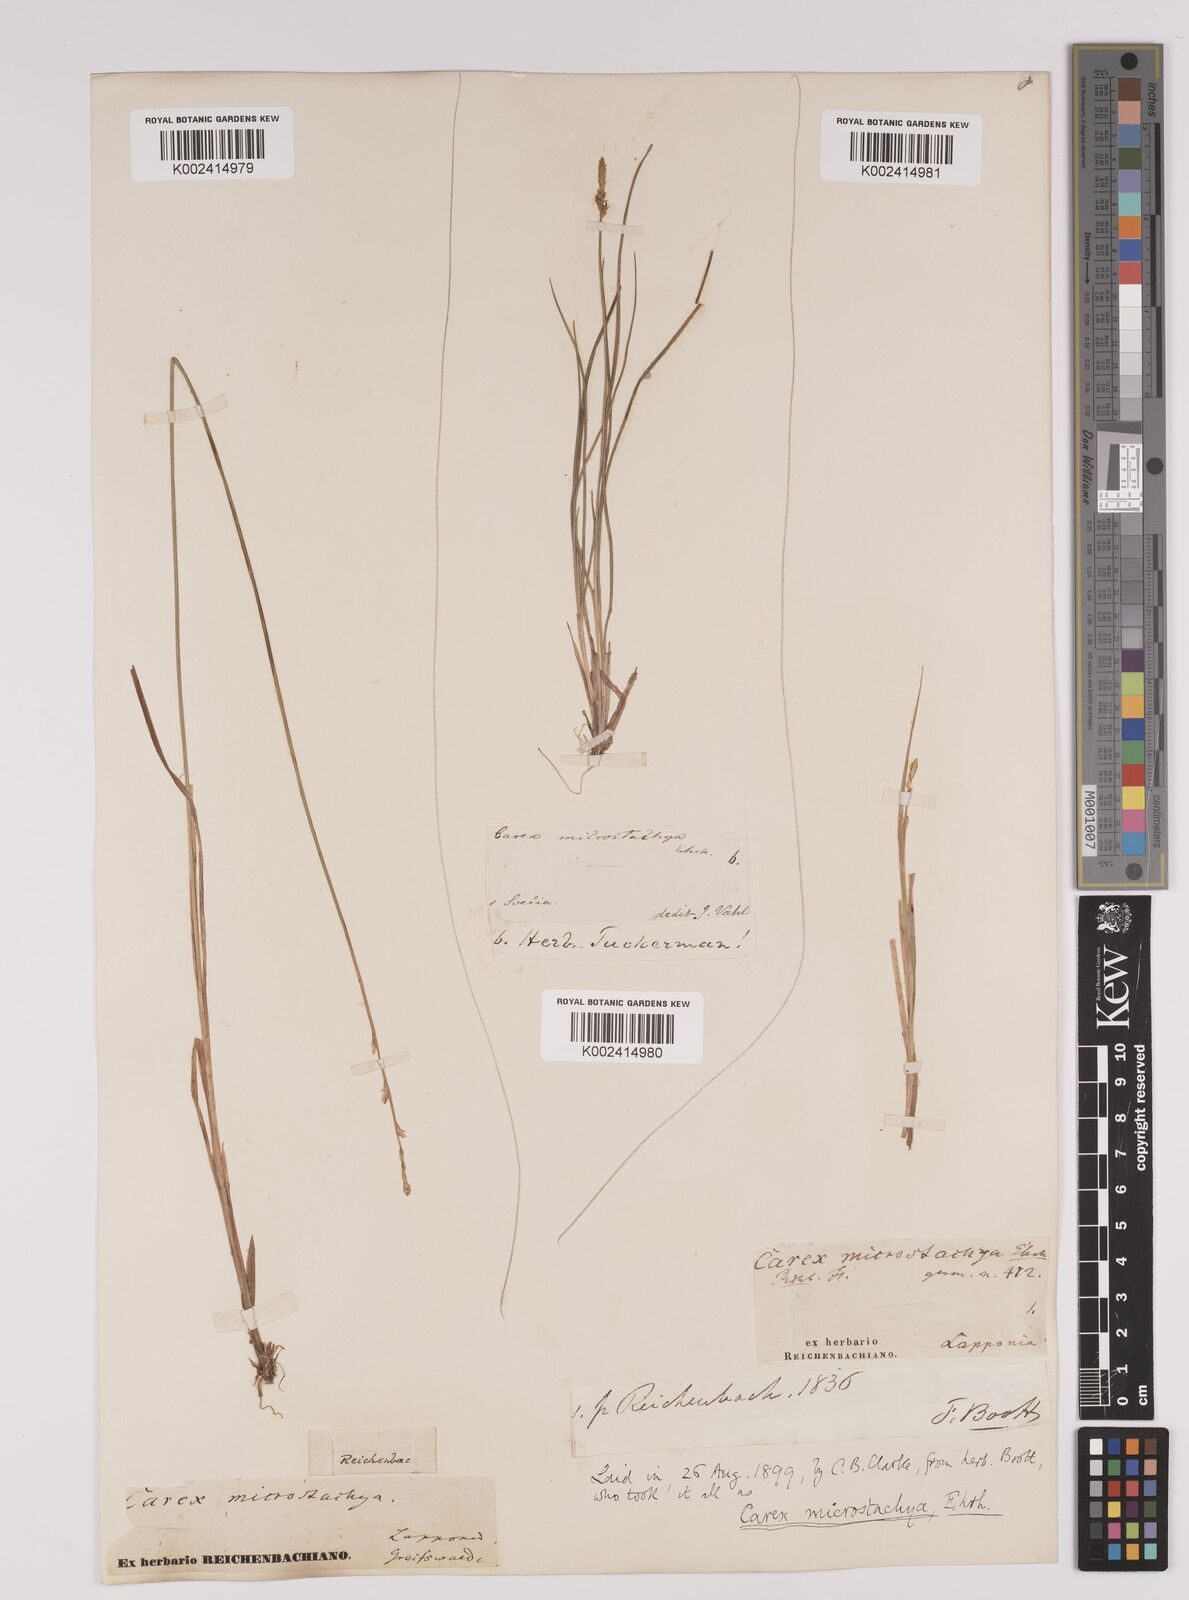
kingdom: Plantae
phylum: Tracheophyta
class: Liliopsida
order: Poales
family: Cyperaceae
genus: Carex
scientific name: Carex dioica
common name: Dioecious sedge
